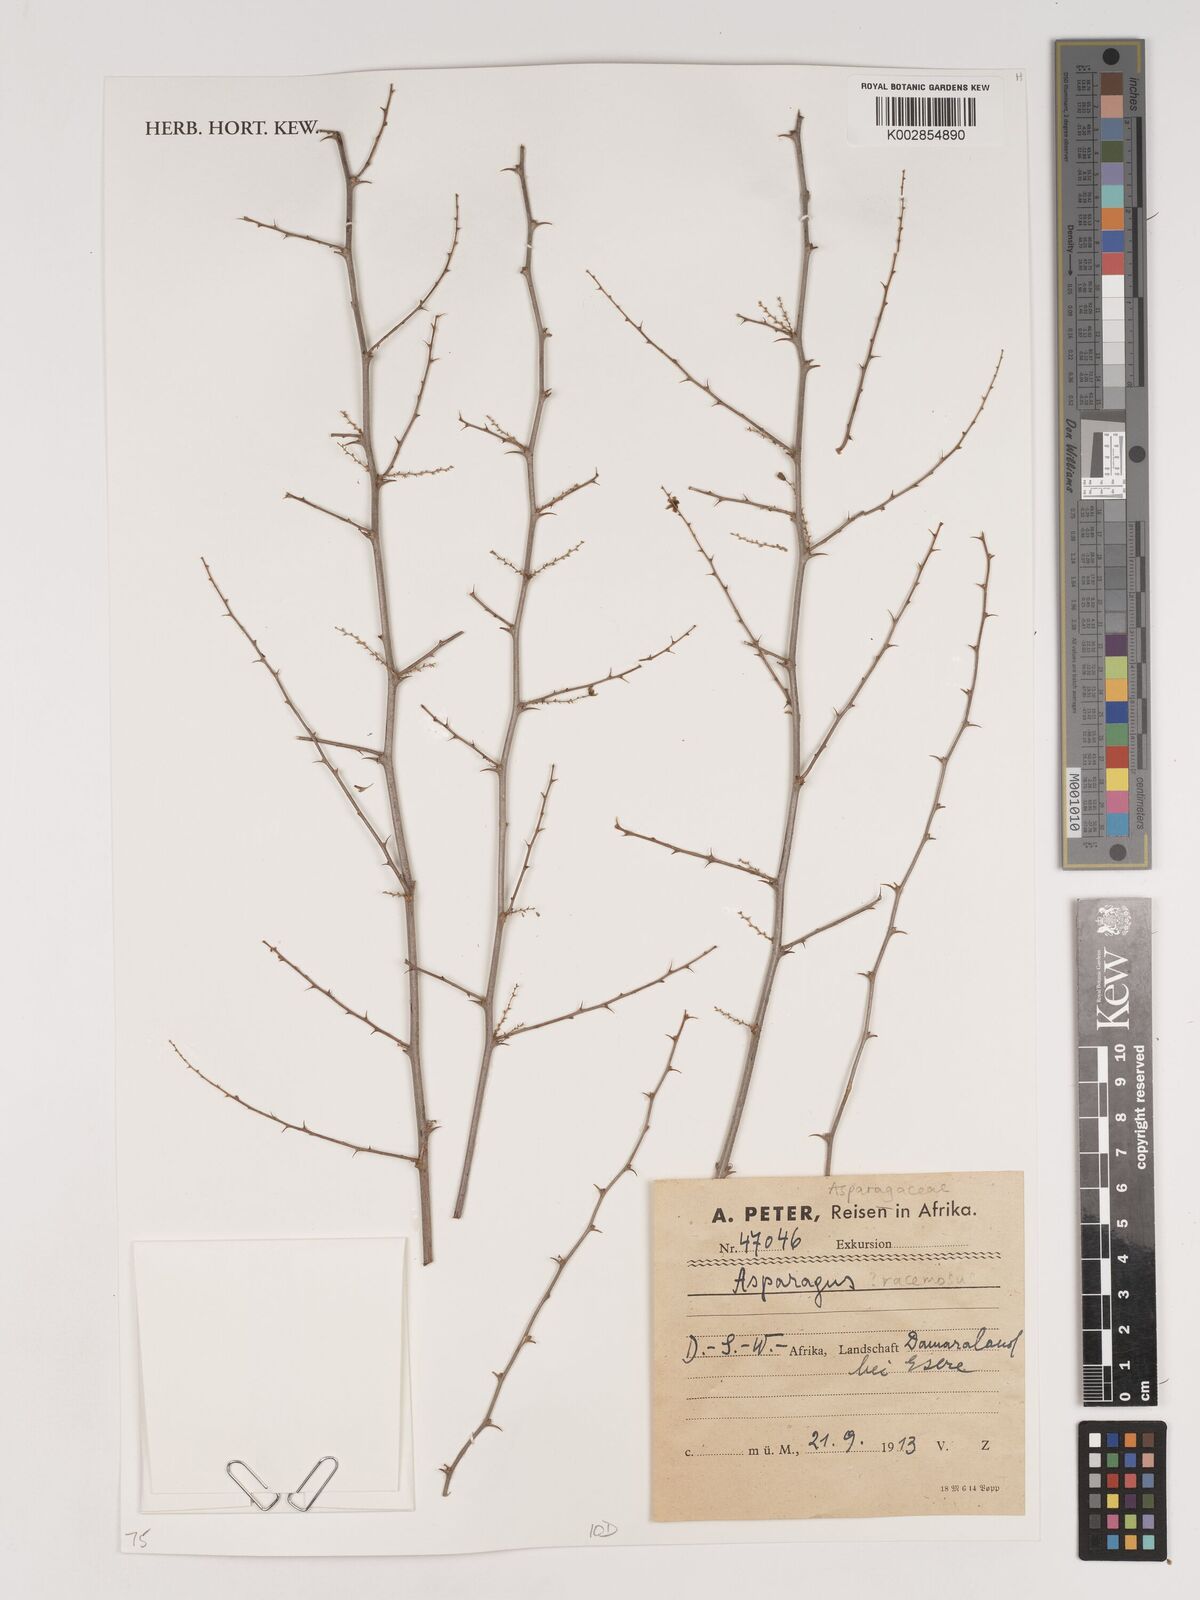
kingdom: Plantae
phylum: Tracheophyta
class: Liliopsida
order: Asparagales
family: Asparagaceae
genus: Asparagus
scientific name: Asparagus racemosus
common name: Asparagus-fern
